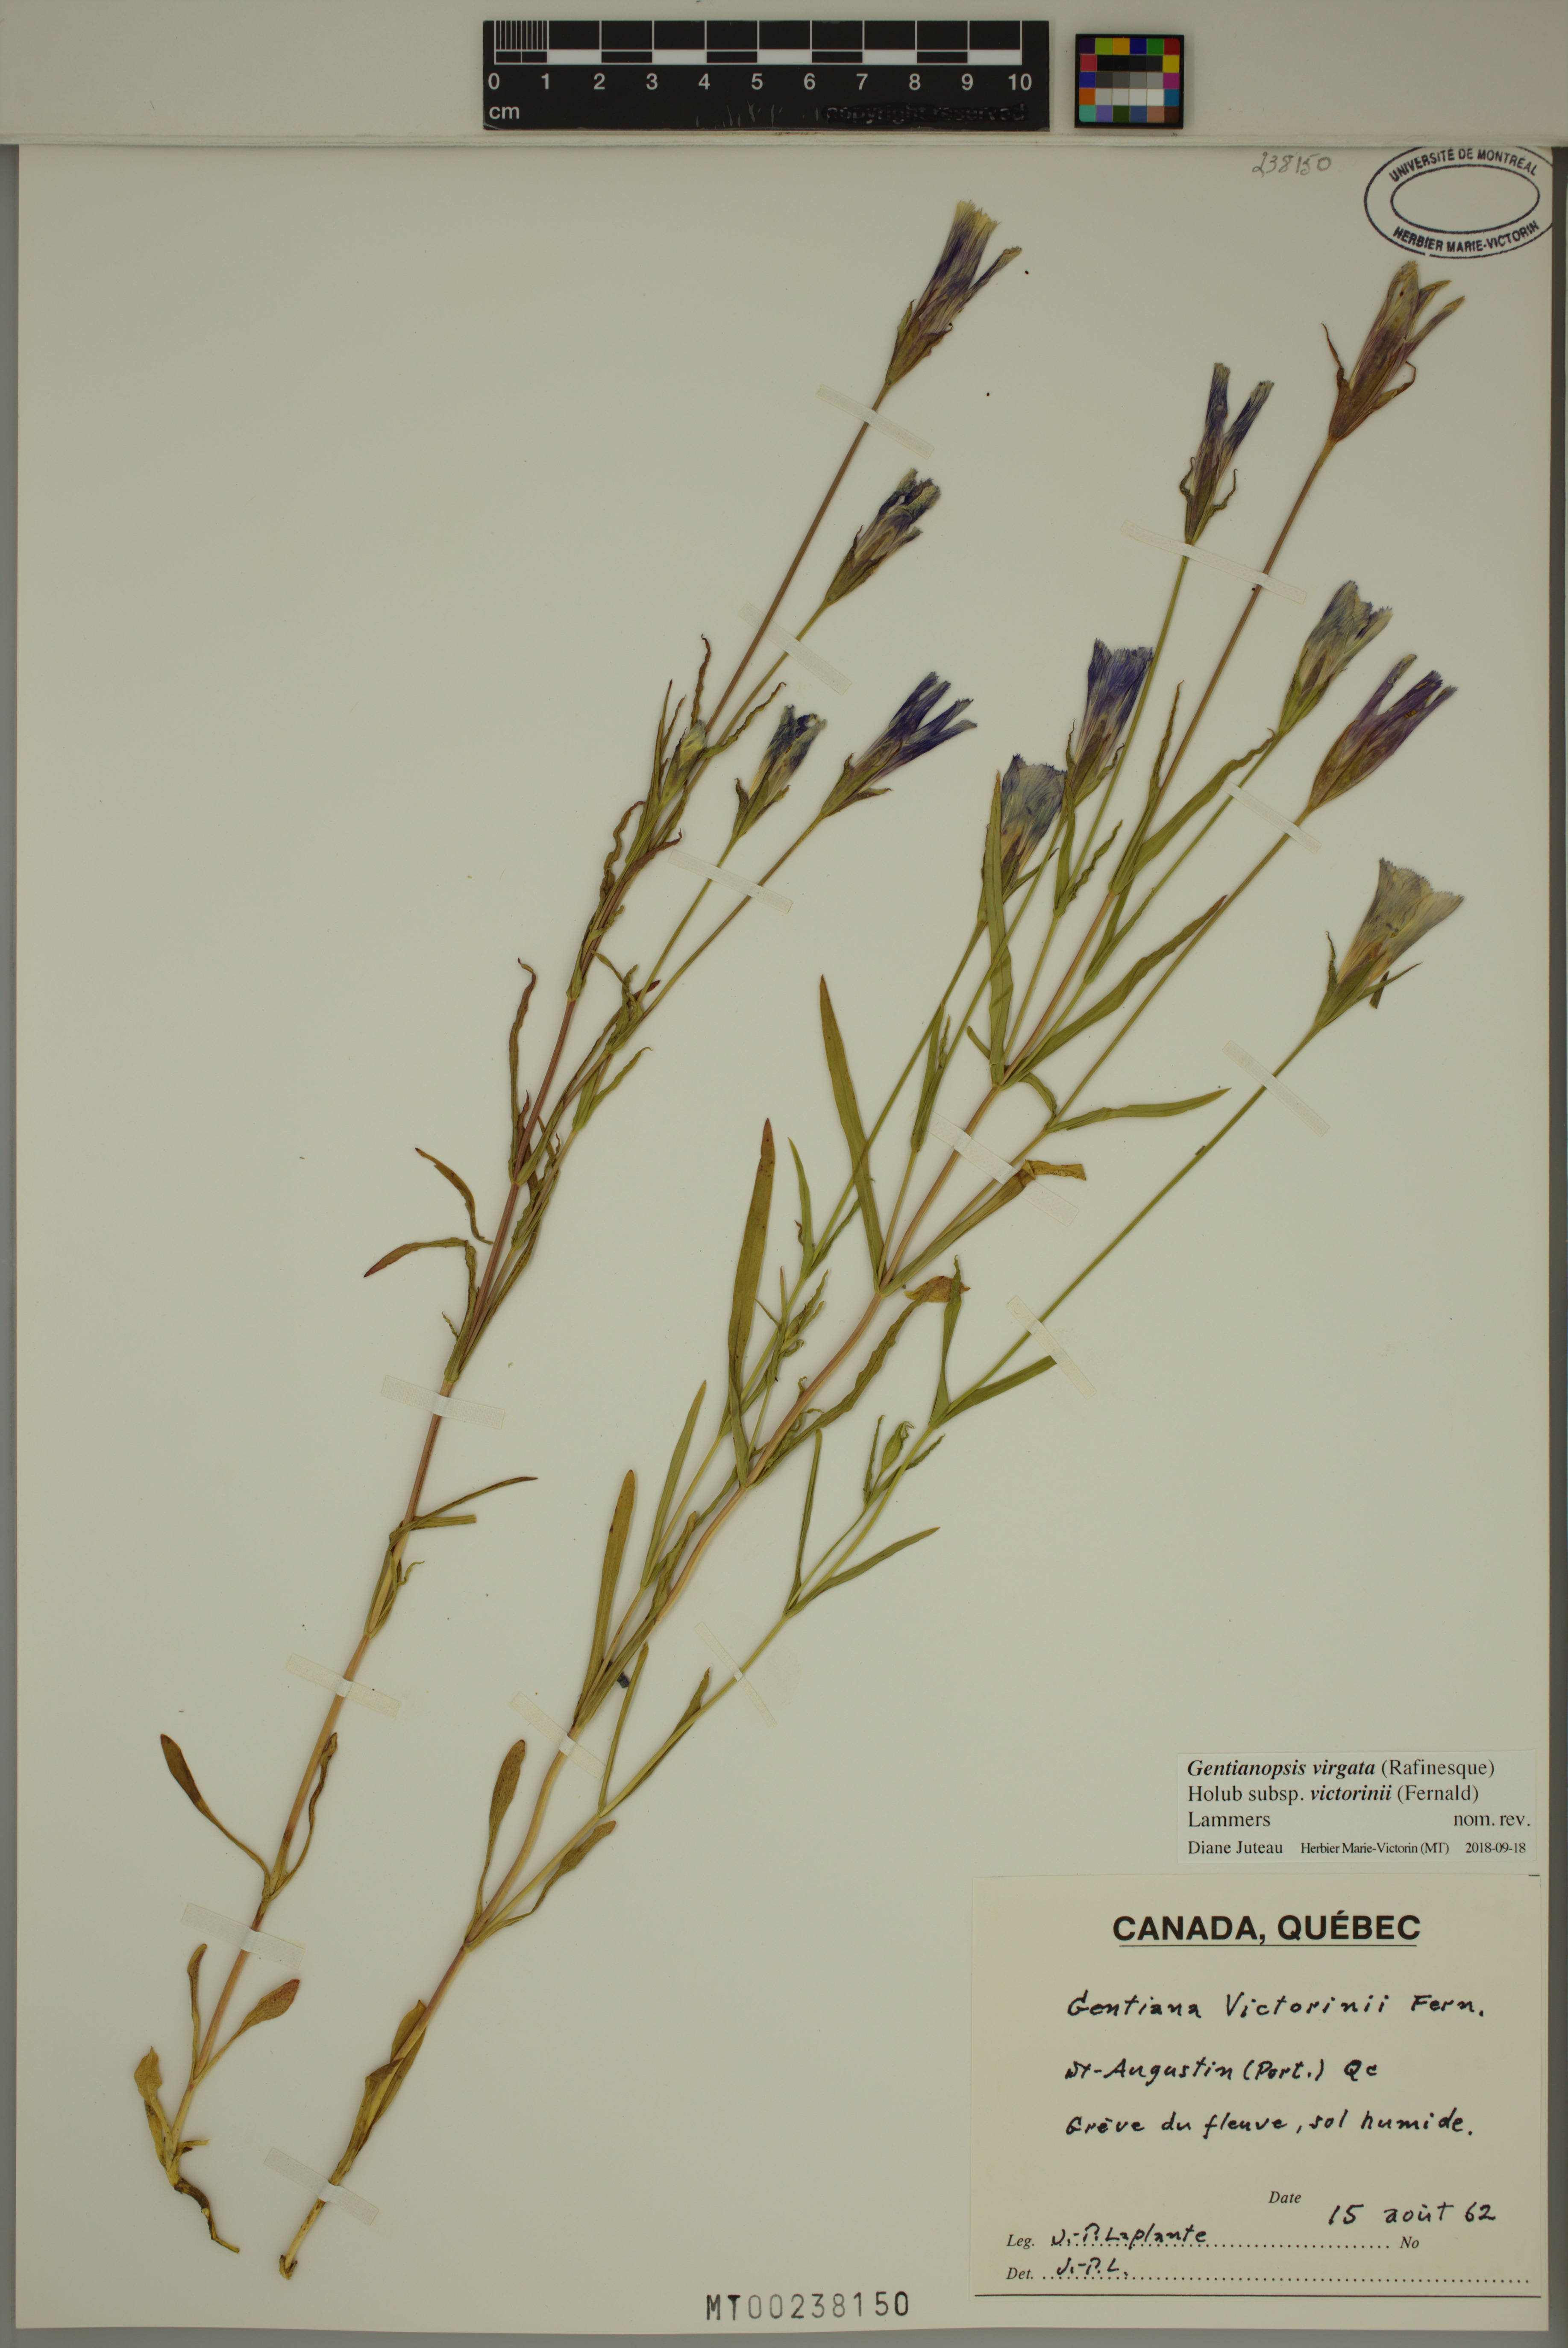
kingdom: Plantae
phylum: Tracheophyta
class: Magnoliopsida
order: Gentianales
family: Gentianaceae
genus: Gentianopsis
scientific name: Gentianopsis victorinii
